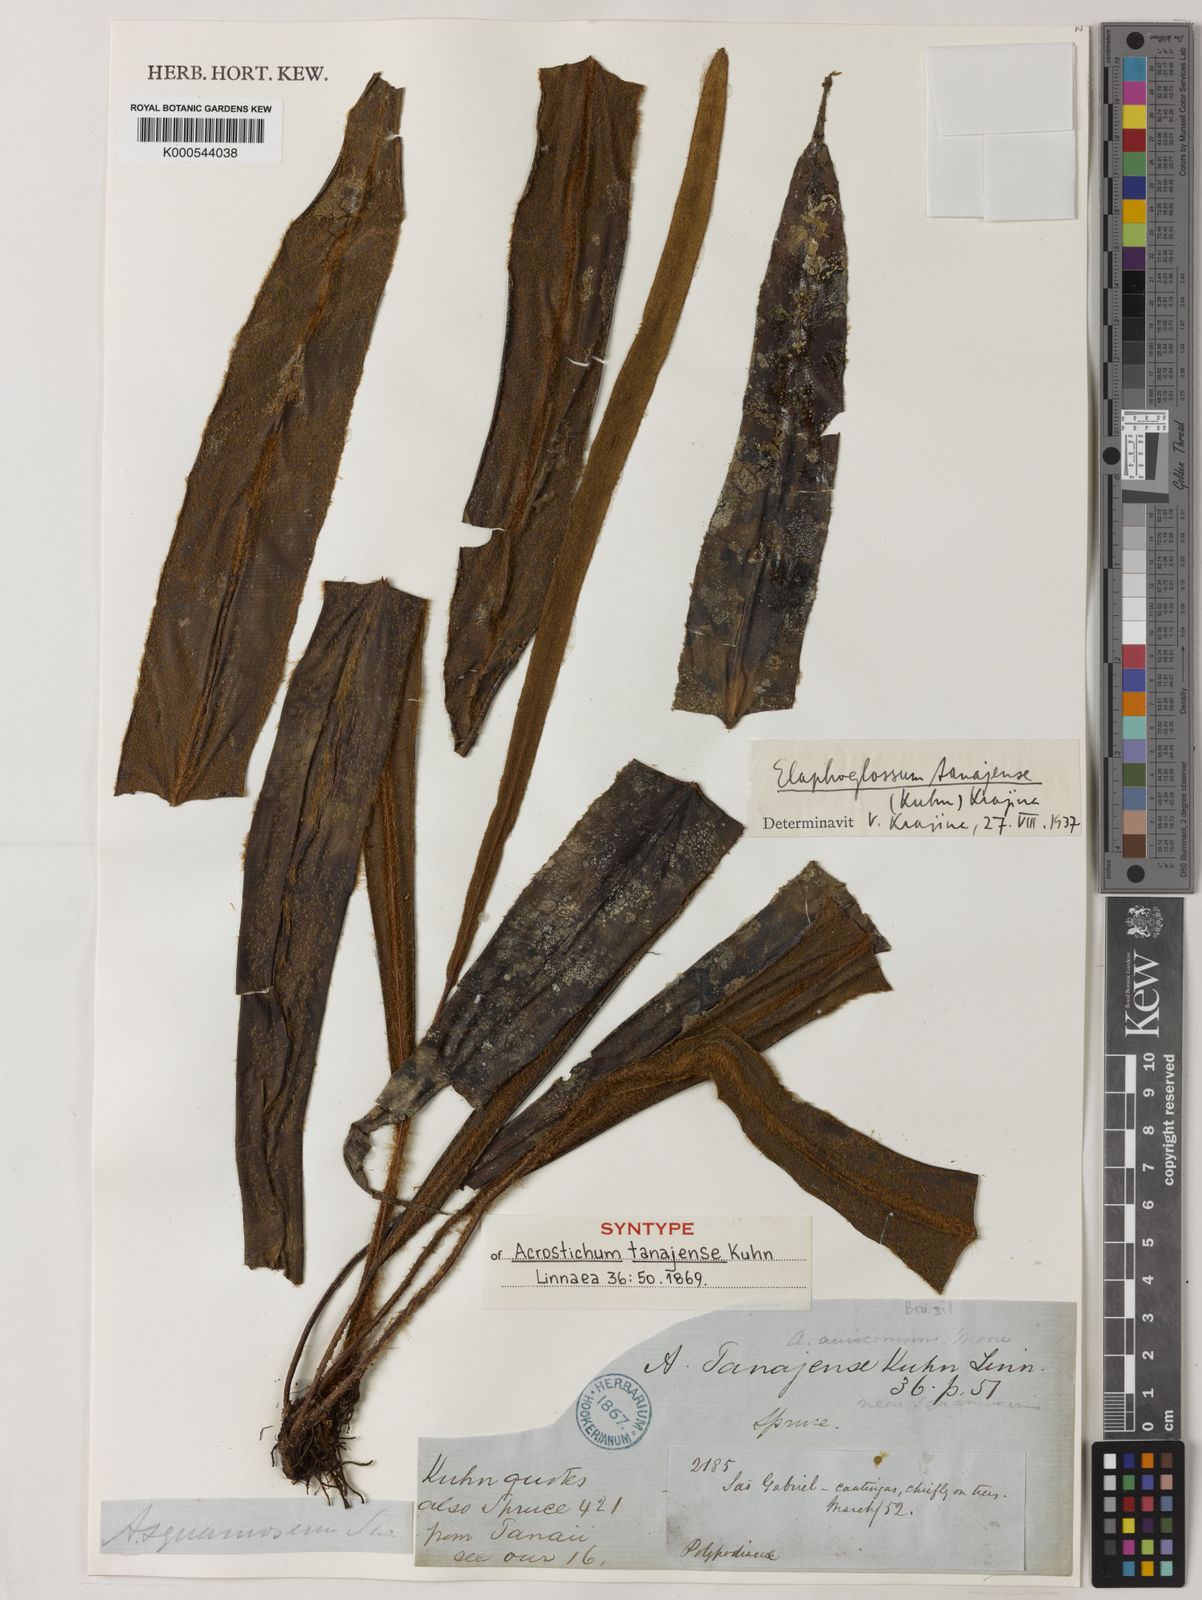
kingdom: Plantae
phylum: Tracheophyta
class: Polypodiopsida
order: Polypodiales
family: Dryopteridaceae
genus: Elaphoglossum
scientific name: Elaphoglossum
